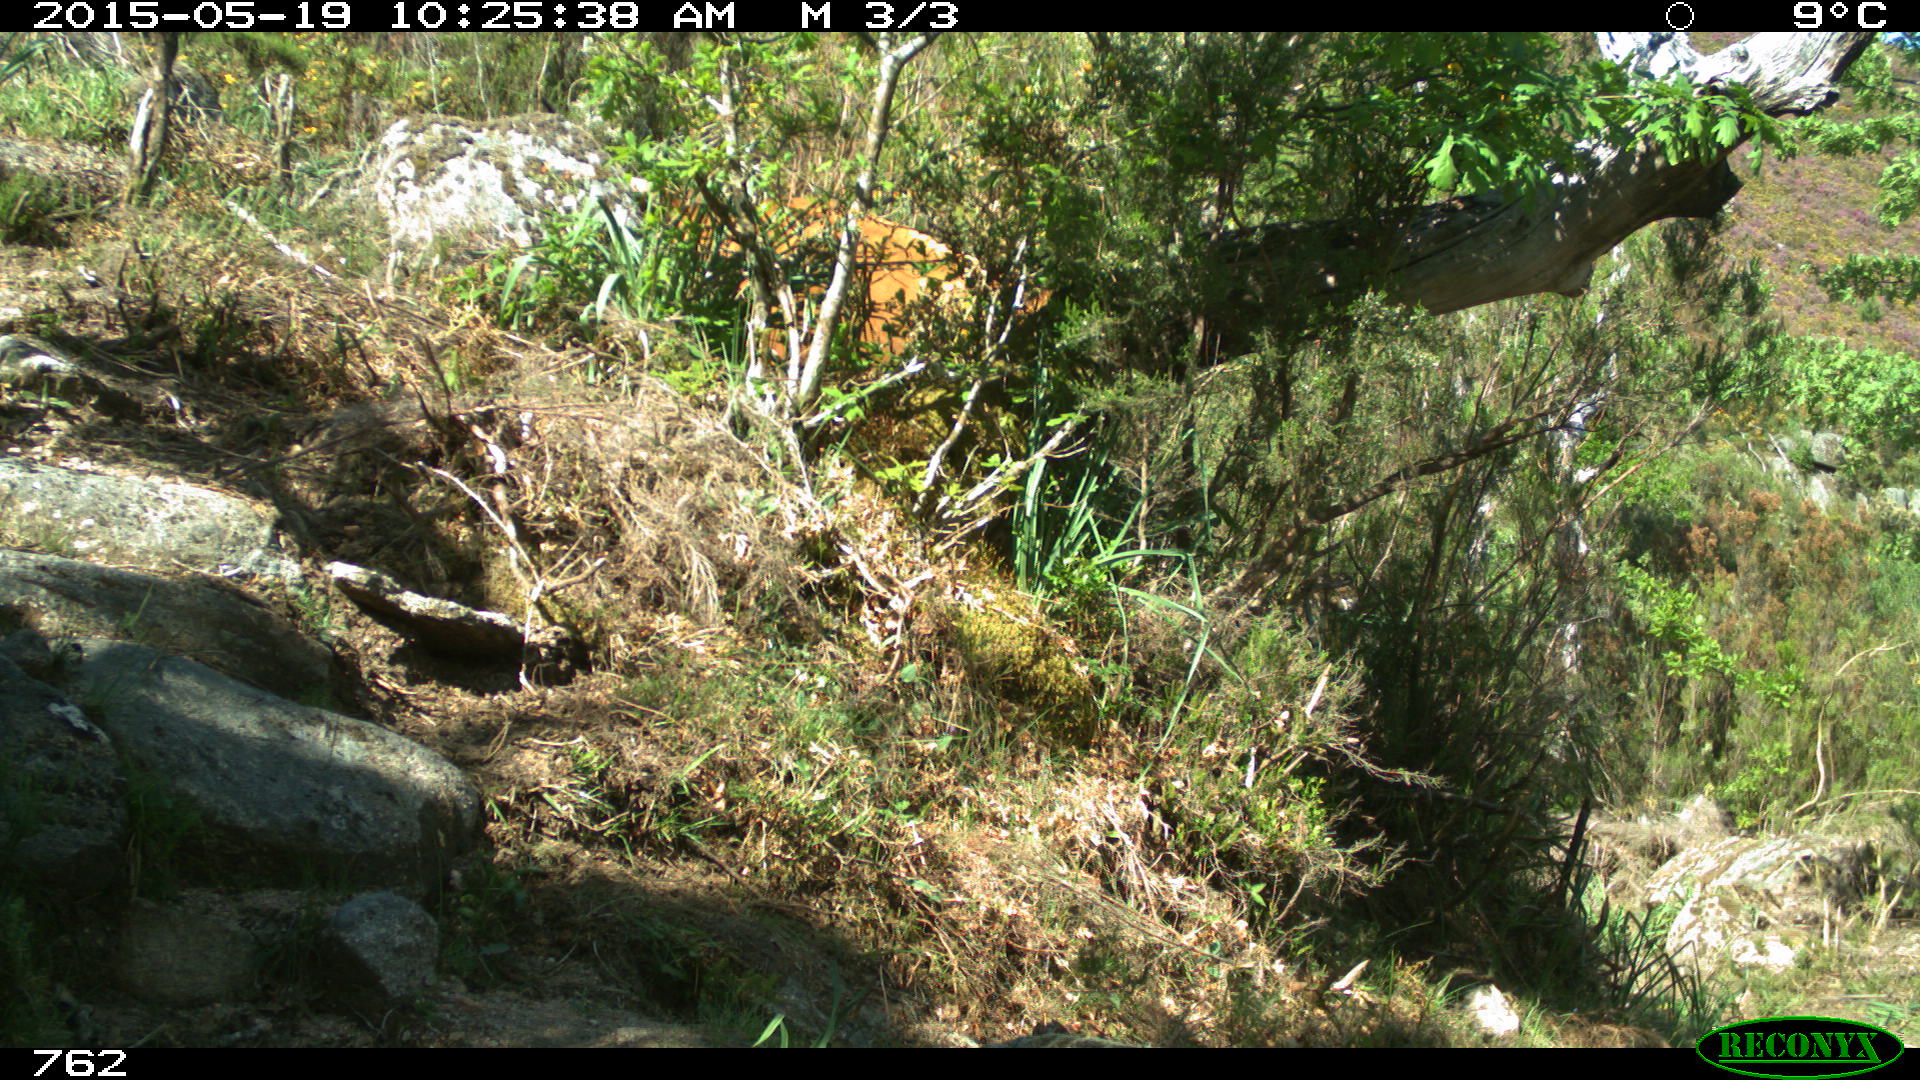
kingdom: Animalia
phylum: Chordata
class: Mammalia
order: Artiodactyla
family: Bovidae
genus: Bos
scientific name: Bos taurus
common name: Domesticated cattle
